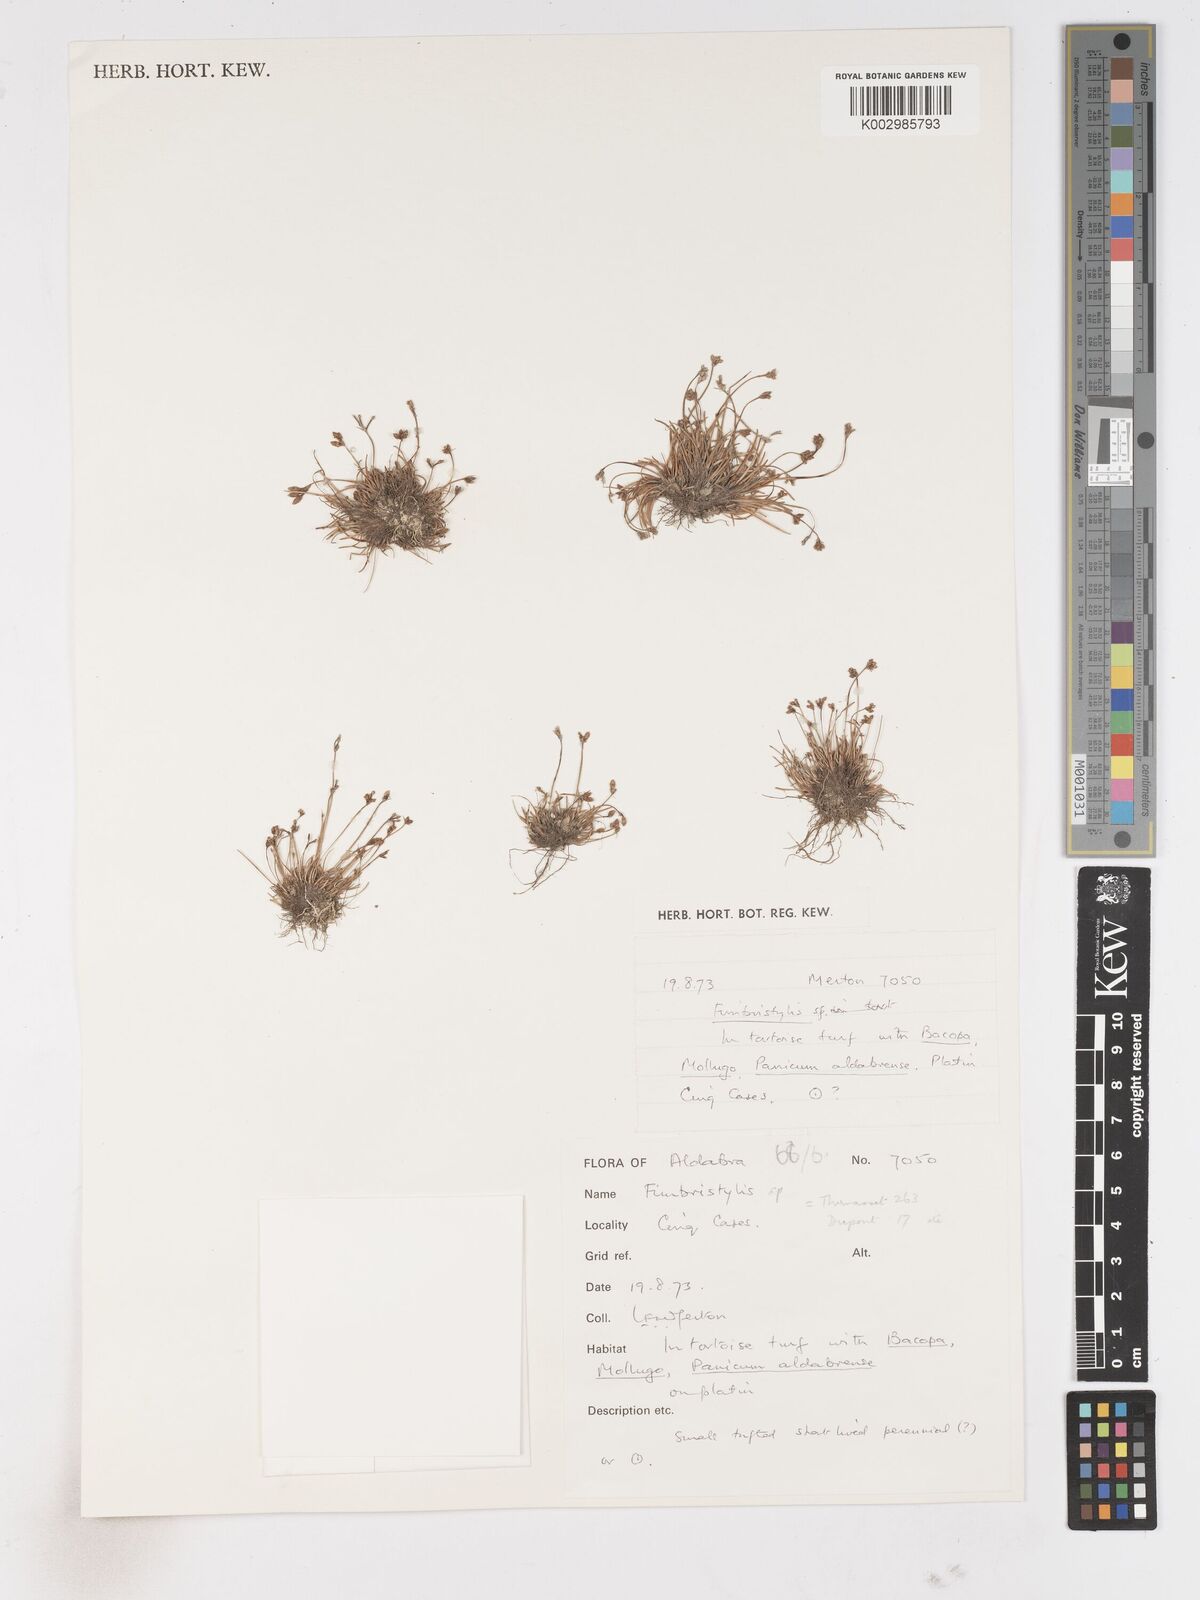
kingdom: Plantae
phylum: Tracheophyta
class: Liliopsida
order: Poales
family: Cyperaceae
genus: Fimbristylis
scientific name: Fimbristylis
